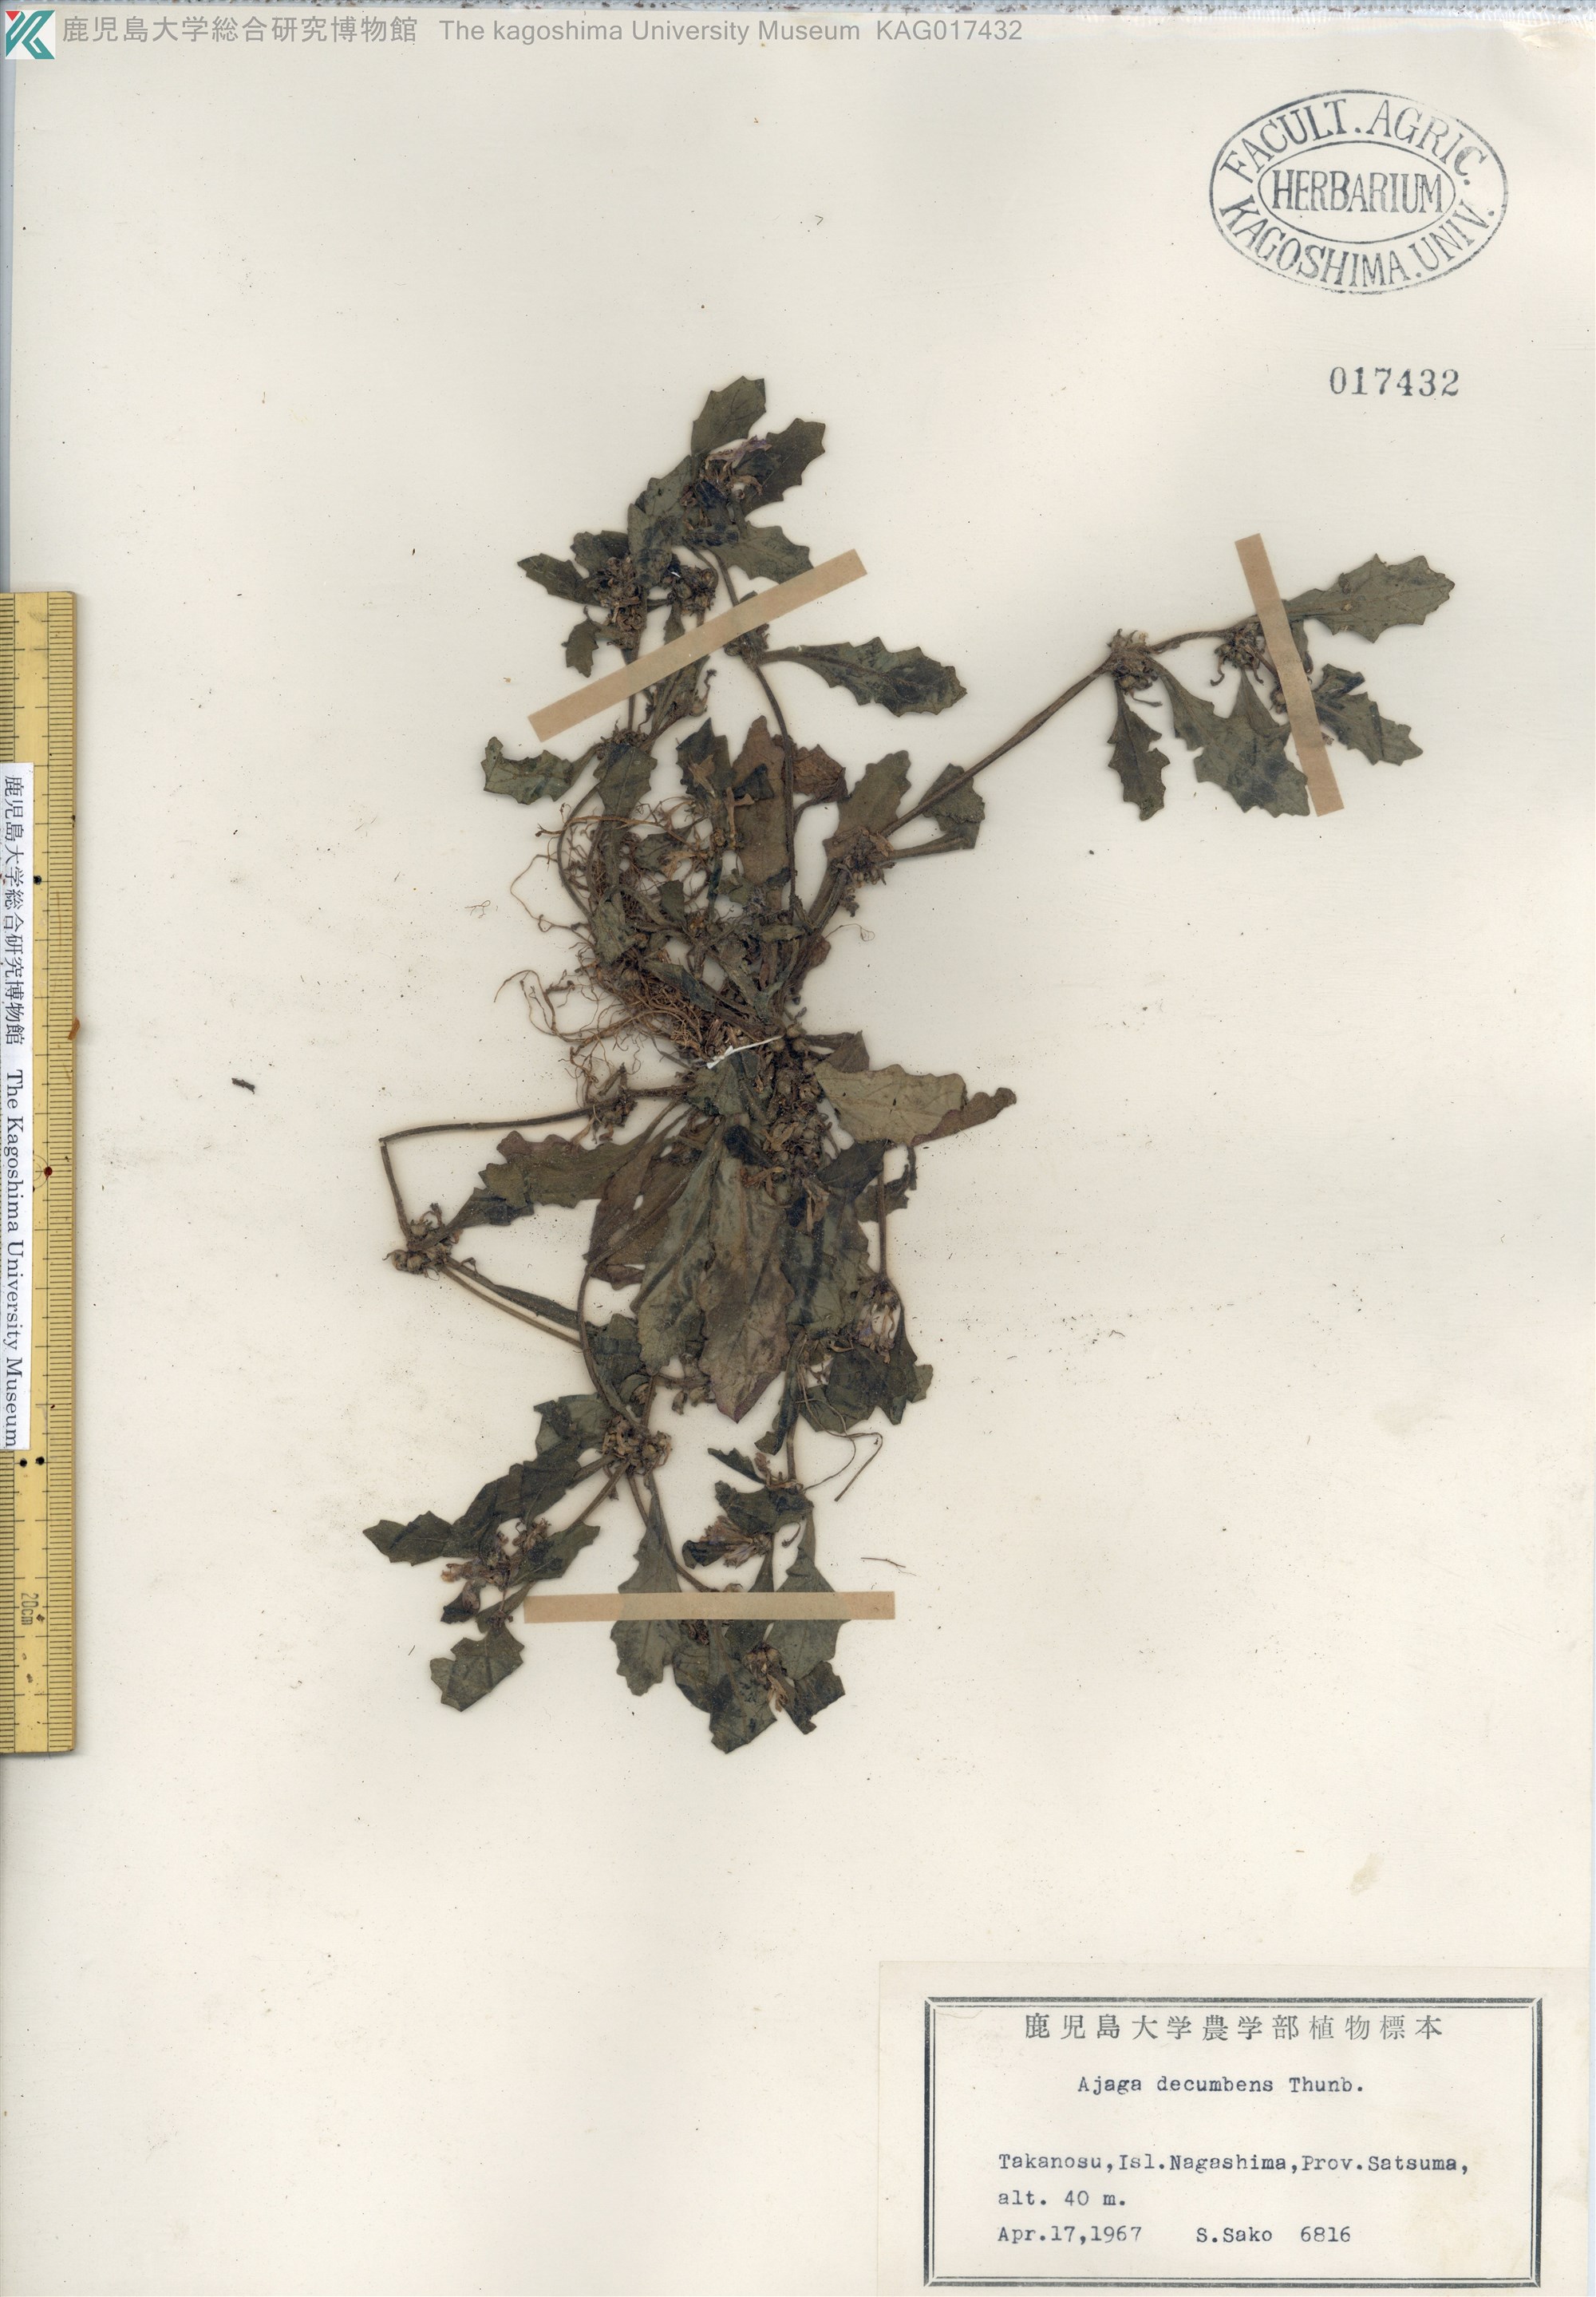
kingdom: Plantae
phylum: Tracheophyta
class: Magnoliopsida
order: Lamiales
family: Lamiaceae
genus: Ajuga
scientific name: Ajuga decumbens
